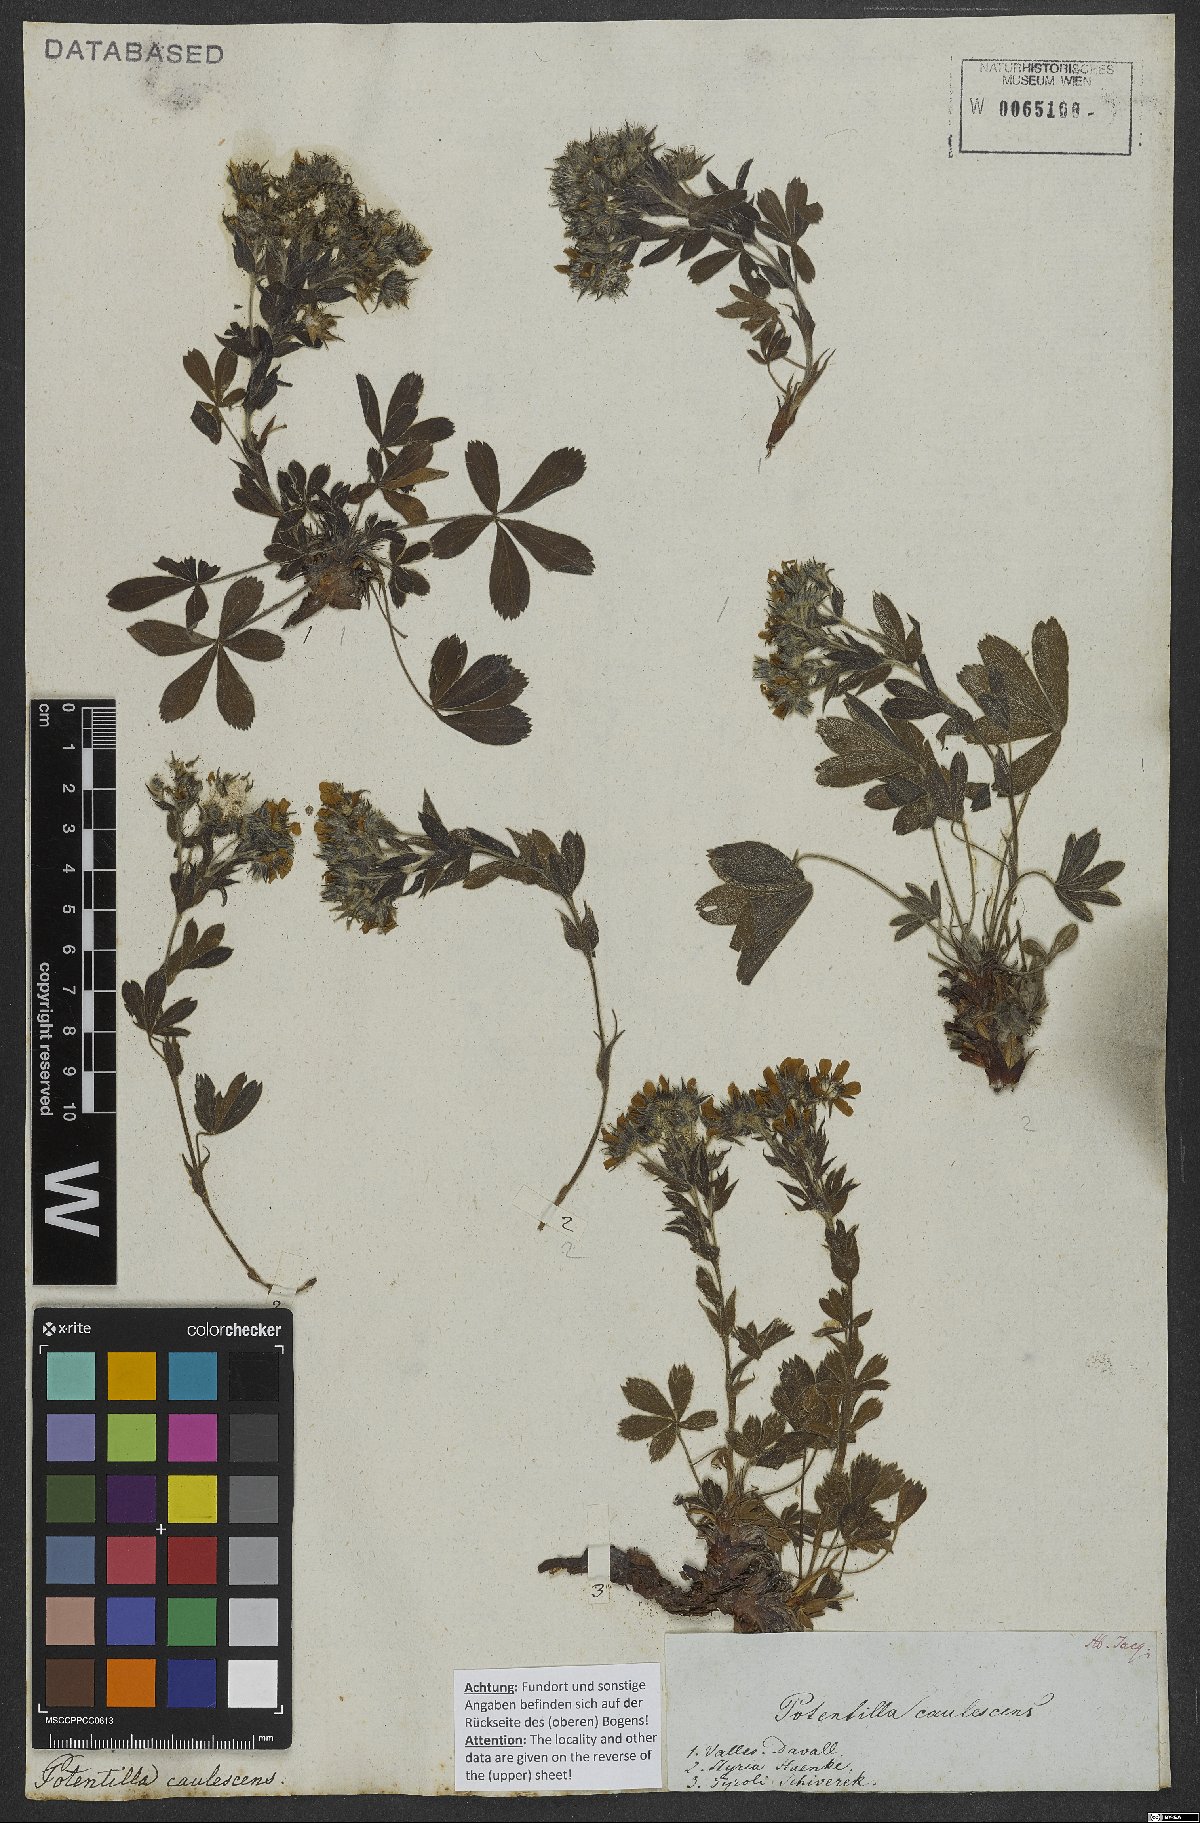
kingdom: Plantae
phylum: Tracheophyta
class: Magnoliopsida
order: Rosales
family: Rosaceae
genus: Potentilla
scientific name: Potentilla caulescens
